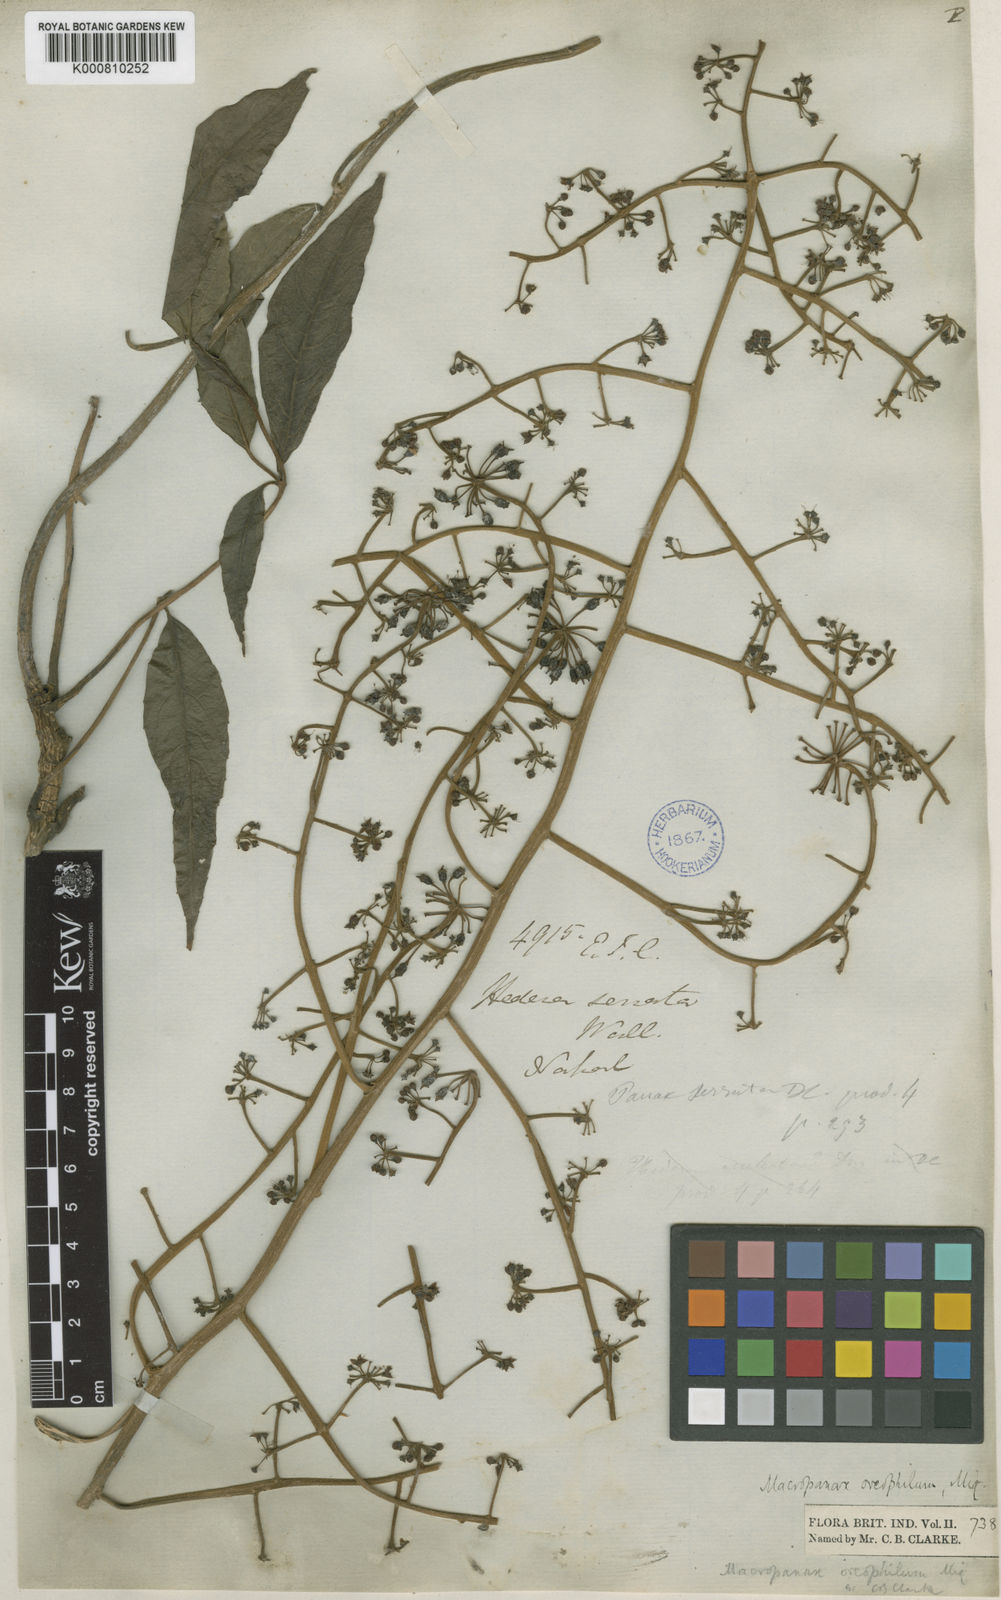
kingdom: Plantae
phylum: Tracheophyta
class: Magnoliopsida
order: Apiales
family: Araliaceae
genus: Macropanax
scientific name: Macropanax dispermus
